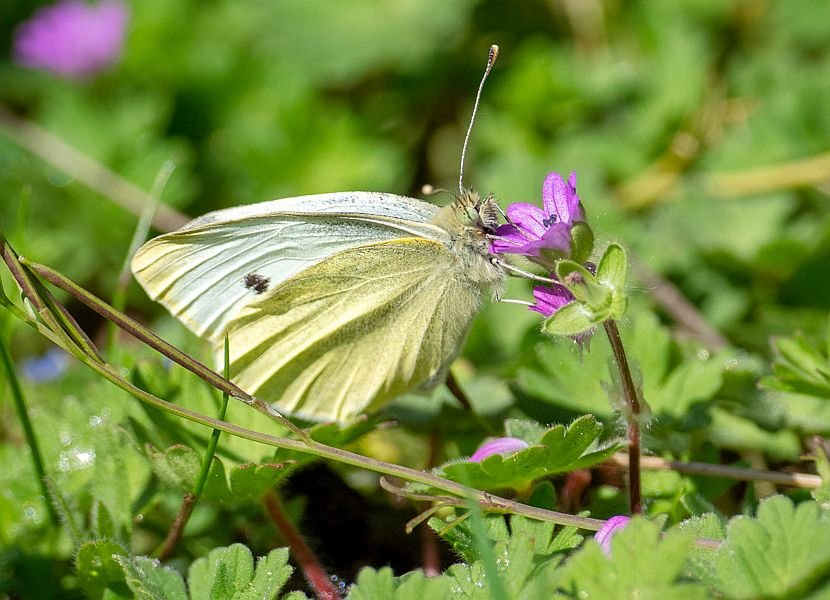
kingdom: Animalia
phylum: Arthropoda
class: Insecta
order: Lepidoptera
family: Pieridae
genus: Pieris
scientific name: Pieris rapae
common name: Cabbage White
